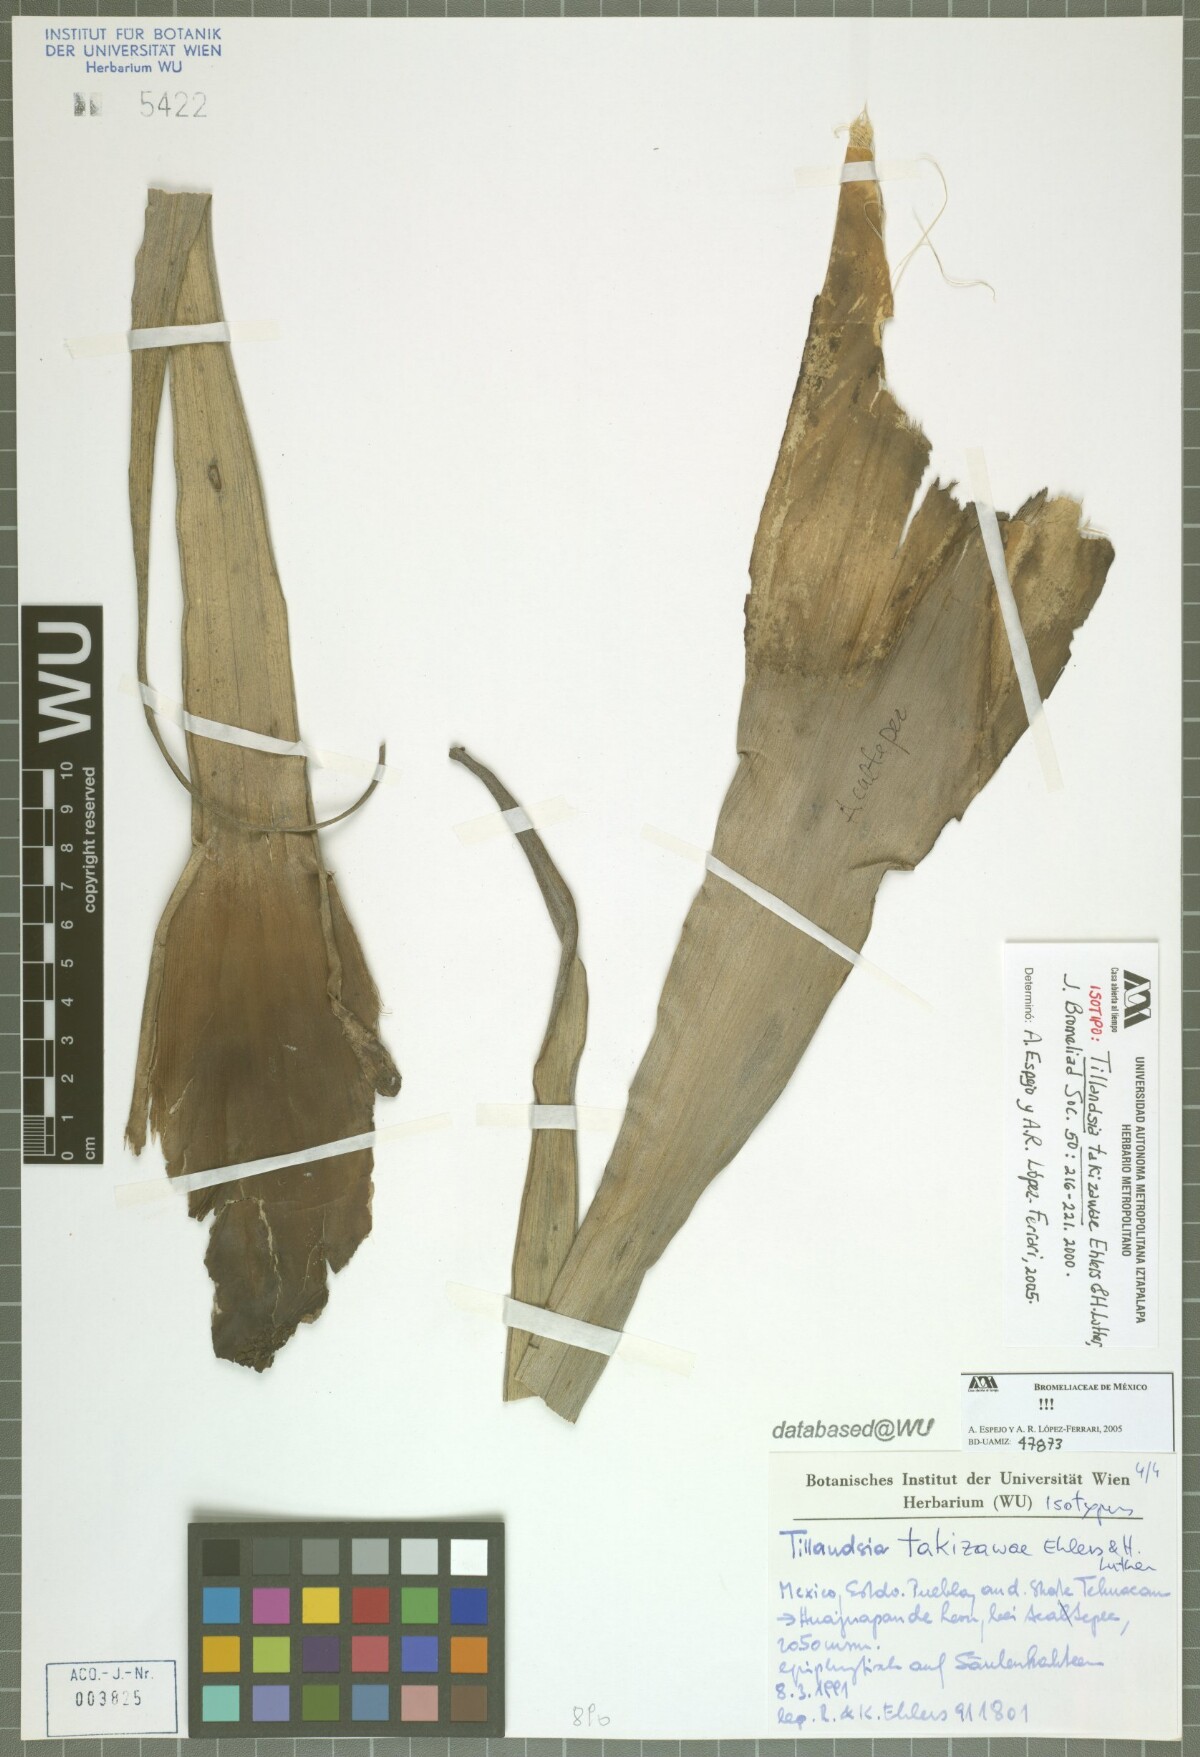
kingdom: Plantae
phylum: Tracheophyta
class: Liliopsida
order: Poales
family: Bromeliaceae
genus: Tillandsia
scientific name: Tillandsia takizawae
